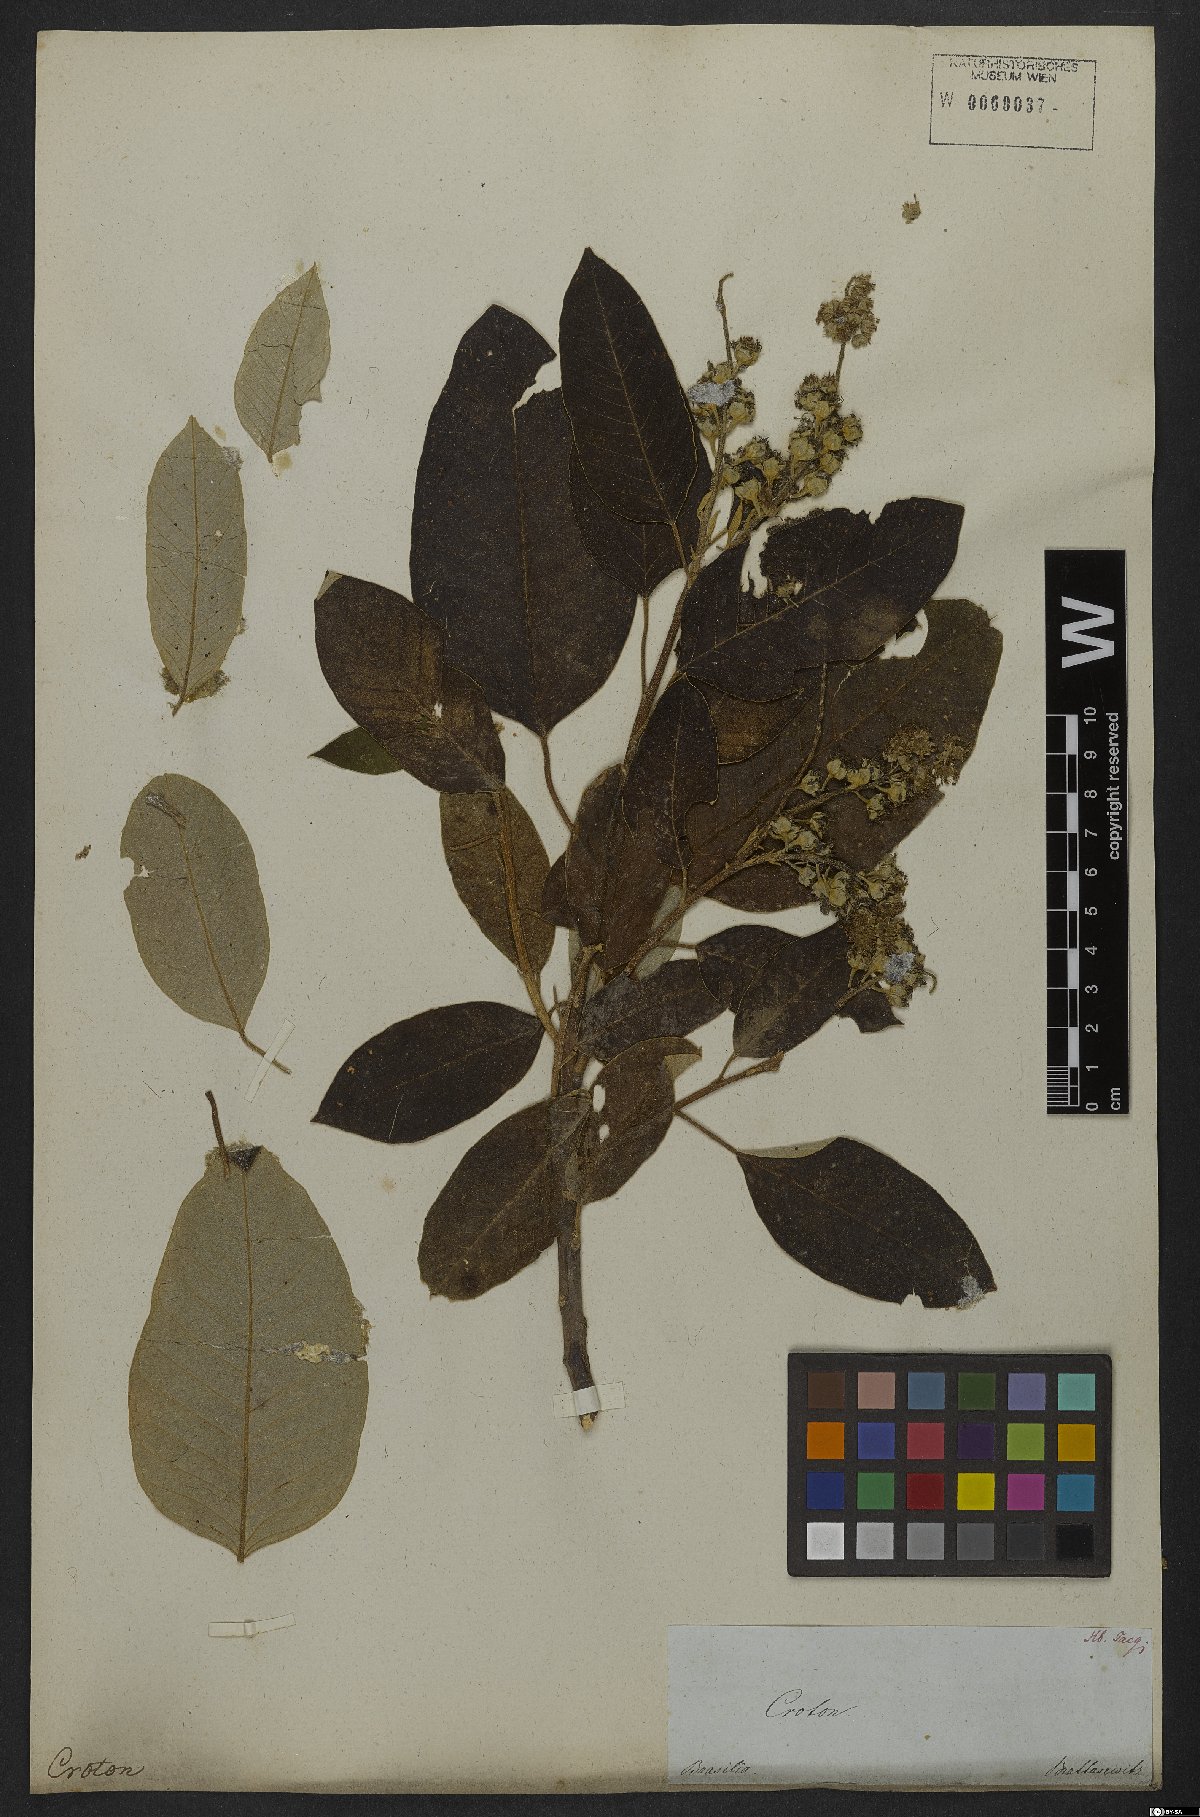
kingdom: Plantae
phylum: Tracheophyta
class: Magnoliopsida
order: Malpighiales
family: Euphorbiaceae
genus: Croton
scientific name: Croton floribundus
